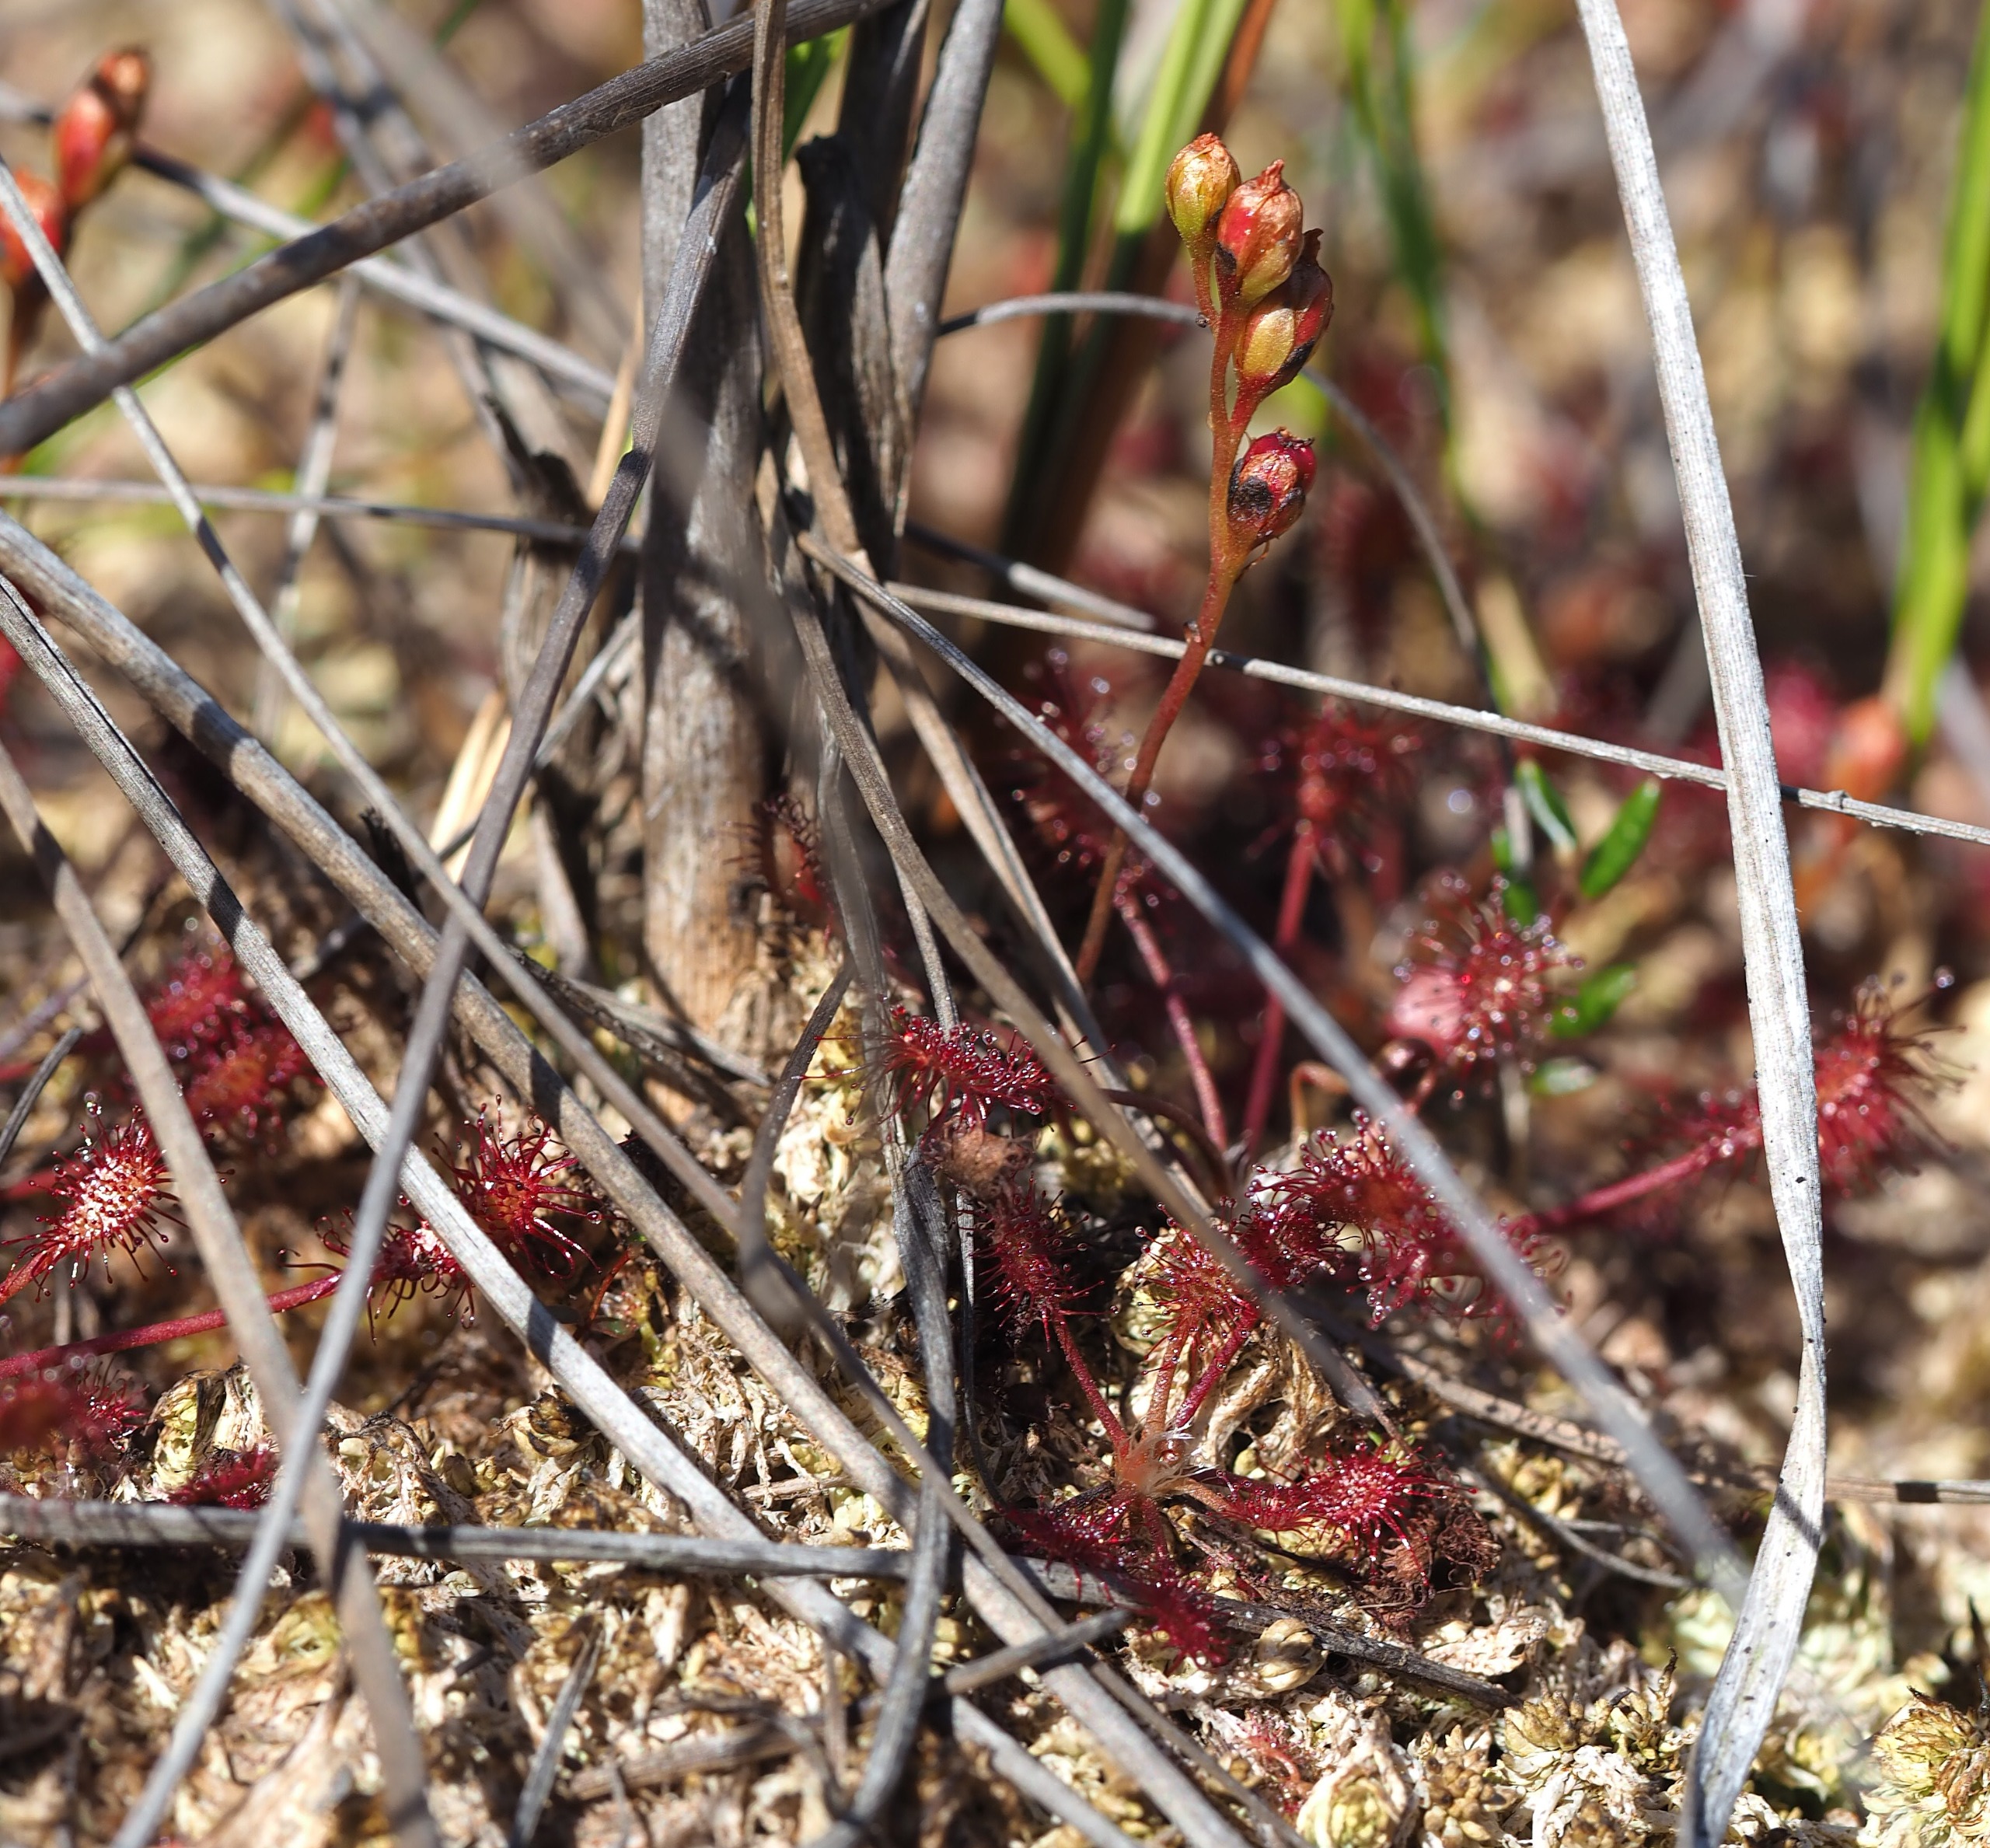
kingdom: Plantae
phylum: Tracheophyta
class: Magnoliopsida
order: Caryophyllales
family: Droseraceae
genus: Drosera
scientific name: Drosera intermedia
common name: Liden soldug
